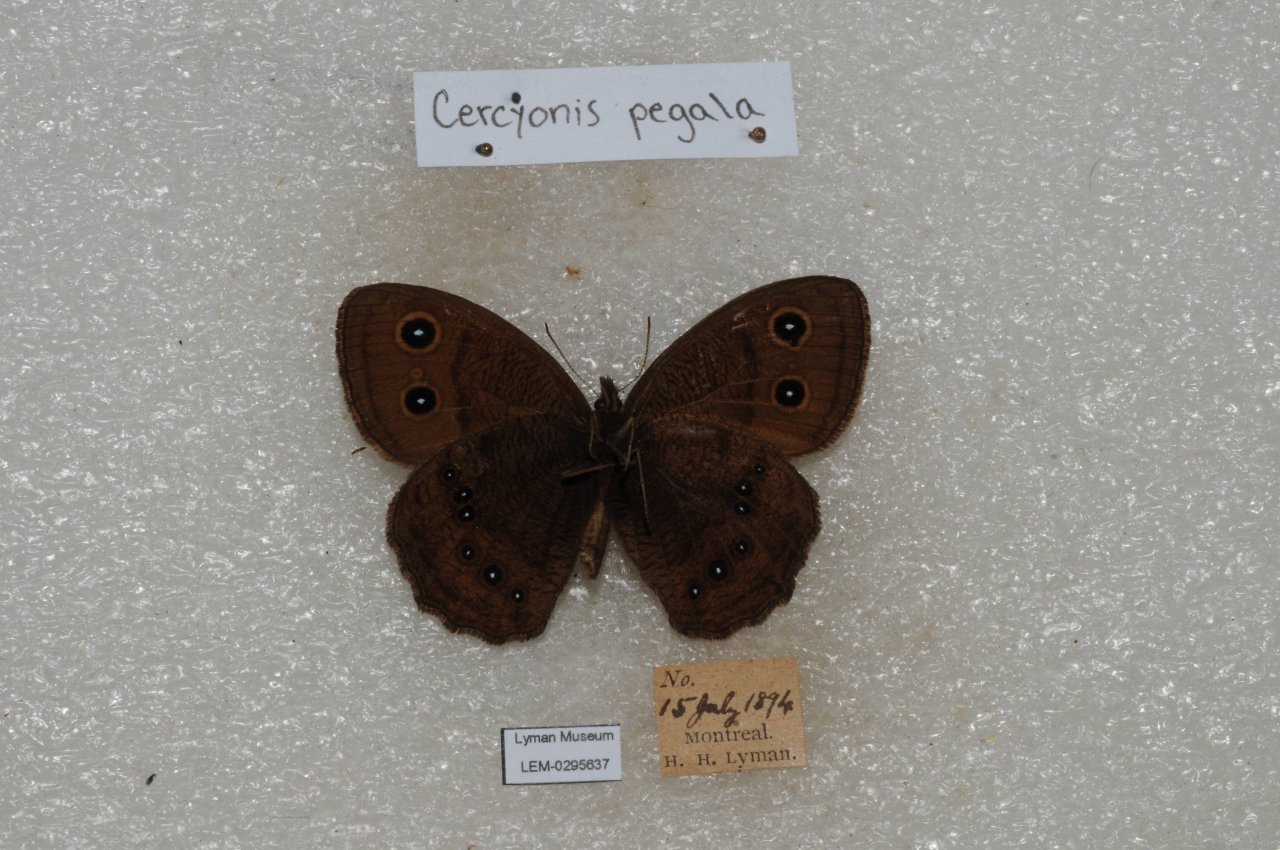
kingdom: Animalia
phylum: Arthropoda
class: Insecta
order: Lepidoptera
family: Nymphalidae
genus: Cercyonis
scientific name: Cercyonis pegala
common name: Common Wood-Nymph
